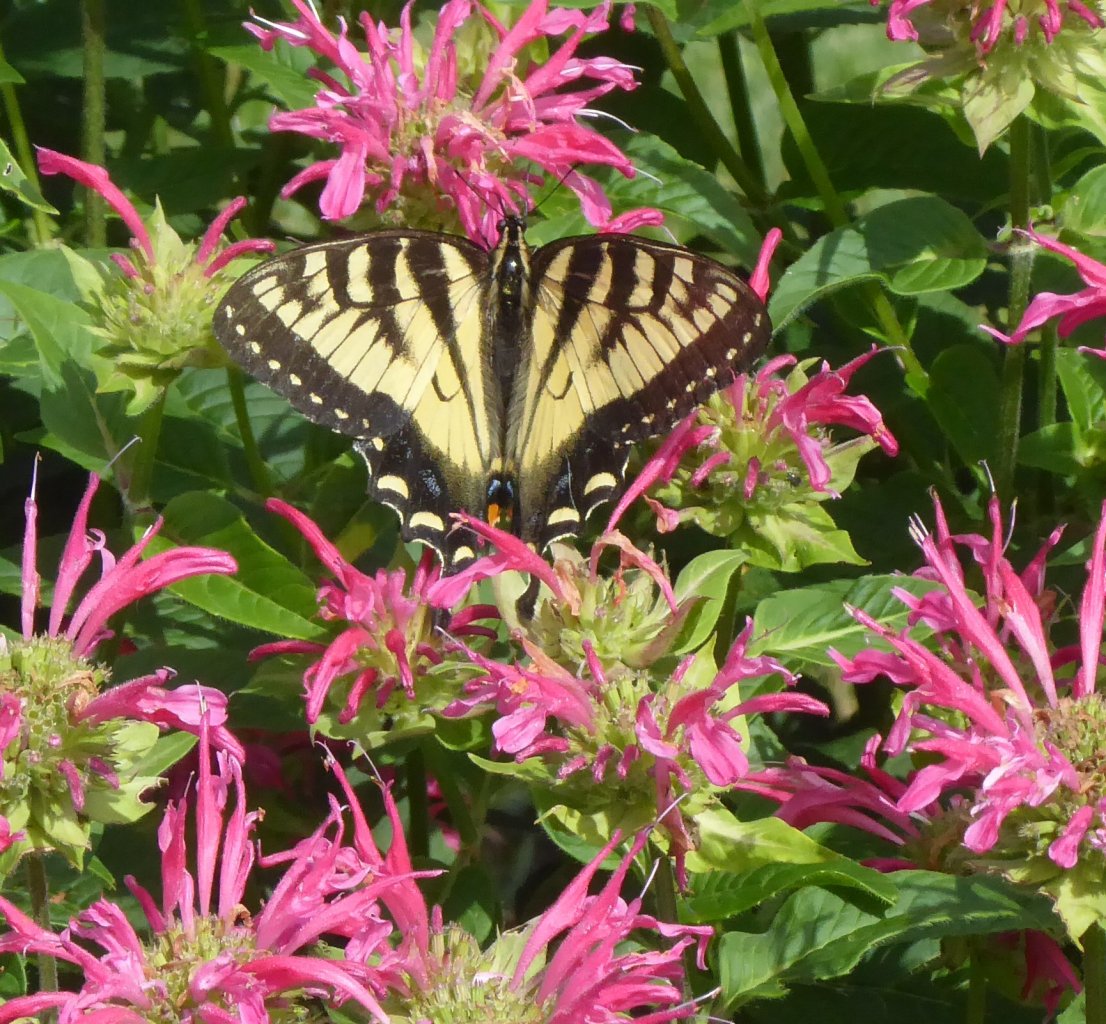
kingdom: Animalia
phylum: Arthropoda
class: Insecta
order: Lepidoptera
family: Papilionidae
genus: Pterourus
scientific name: Pterourus
